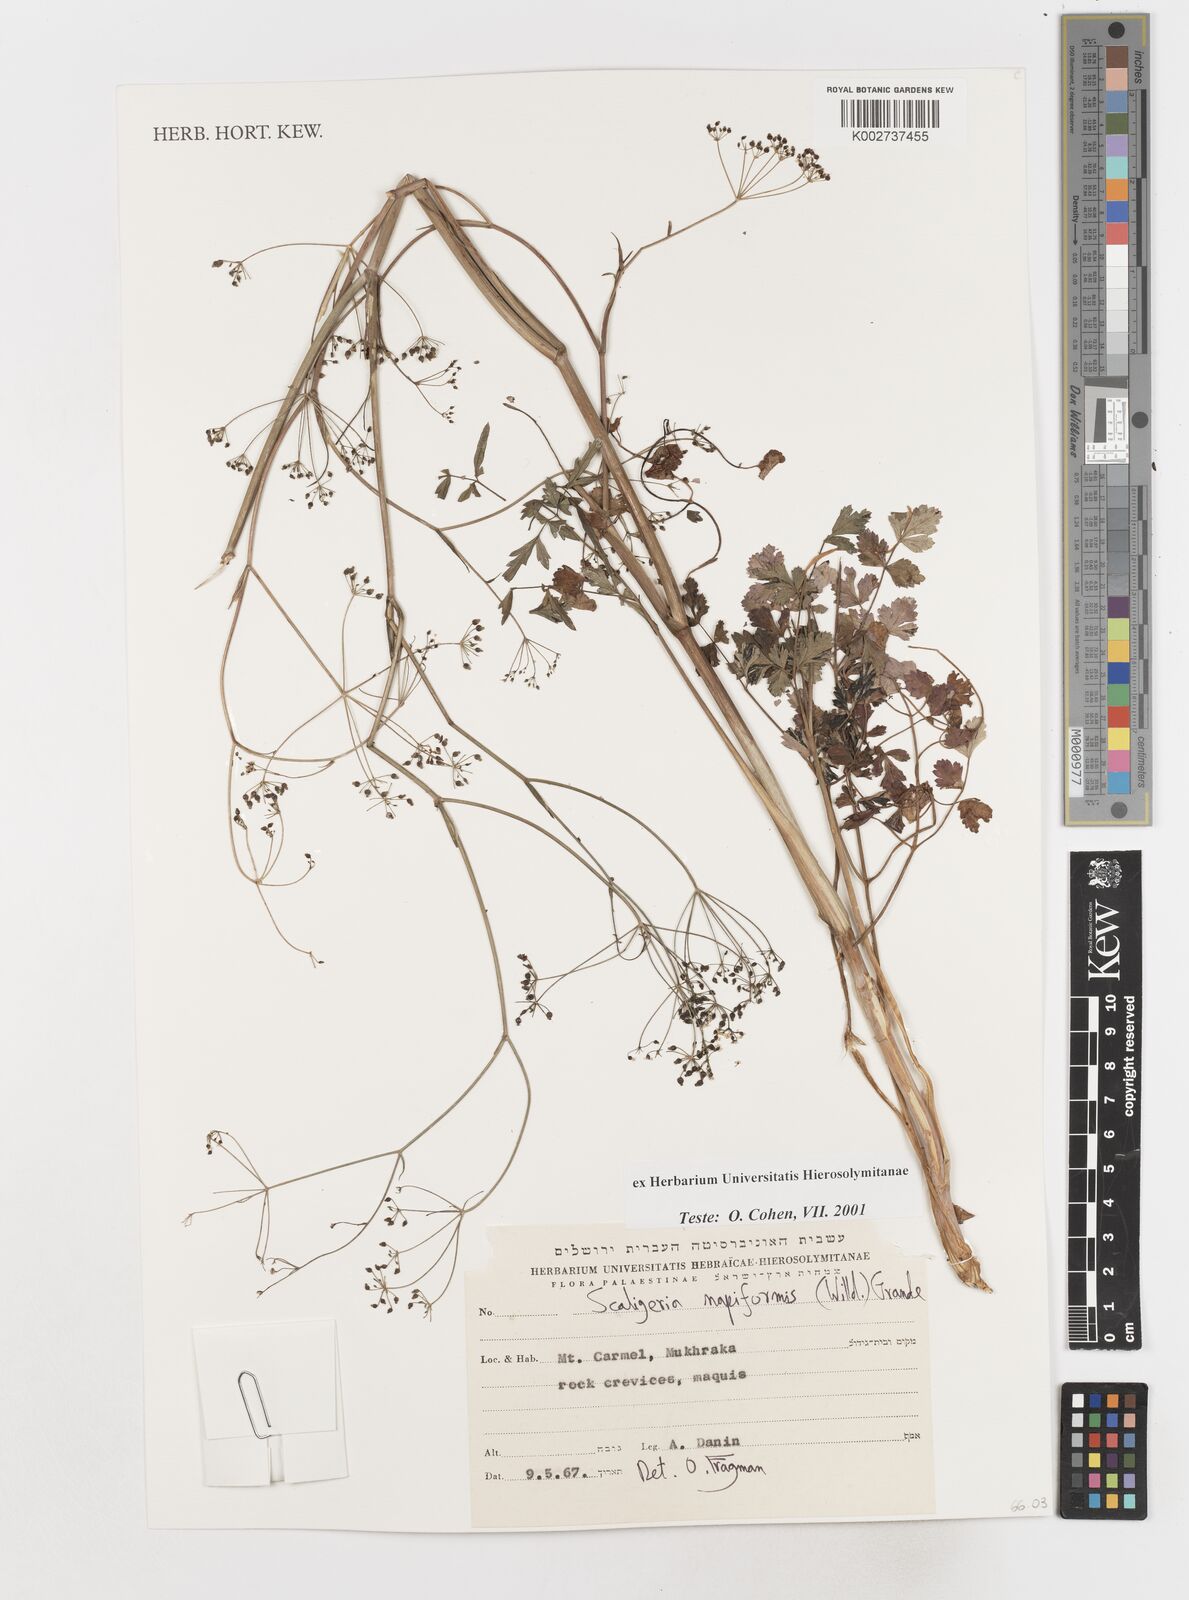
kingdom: Plantae
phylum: Tracheophyta
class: Magnoliopsida
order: Apiales
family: Apiaceae
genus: Scaligeria
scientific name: Scaligeria
